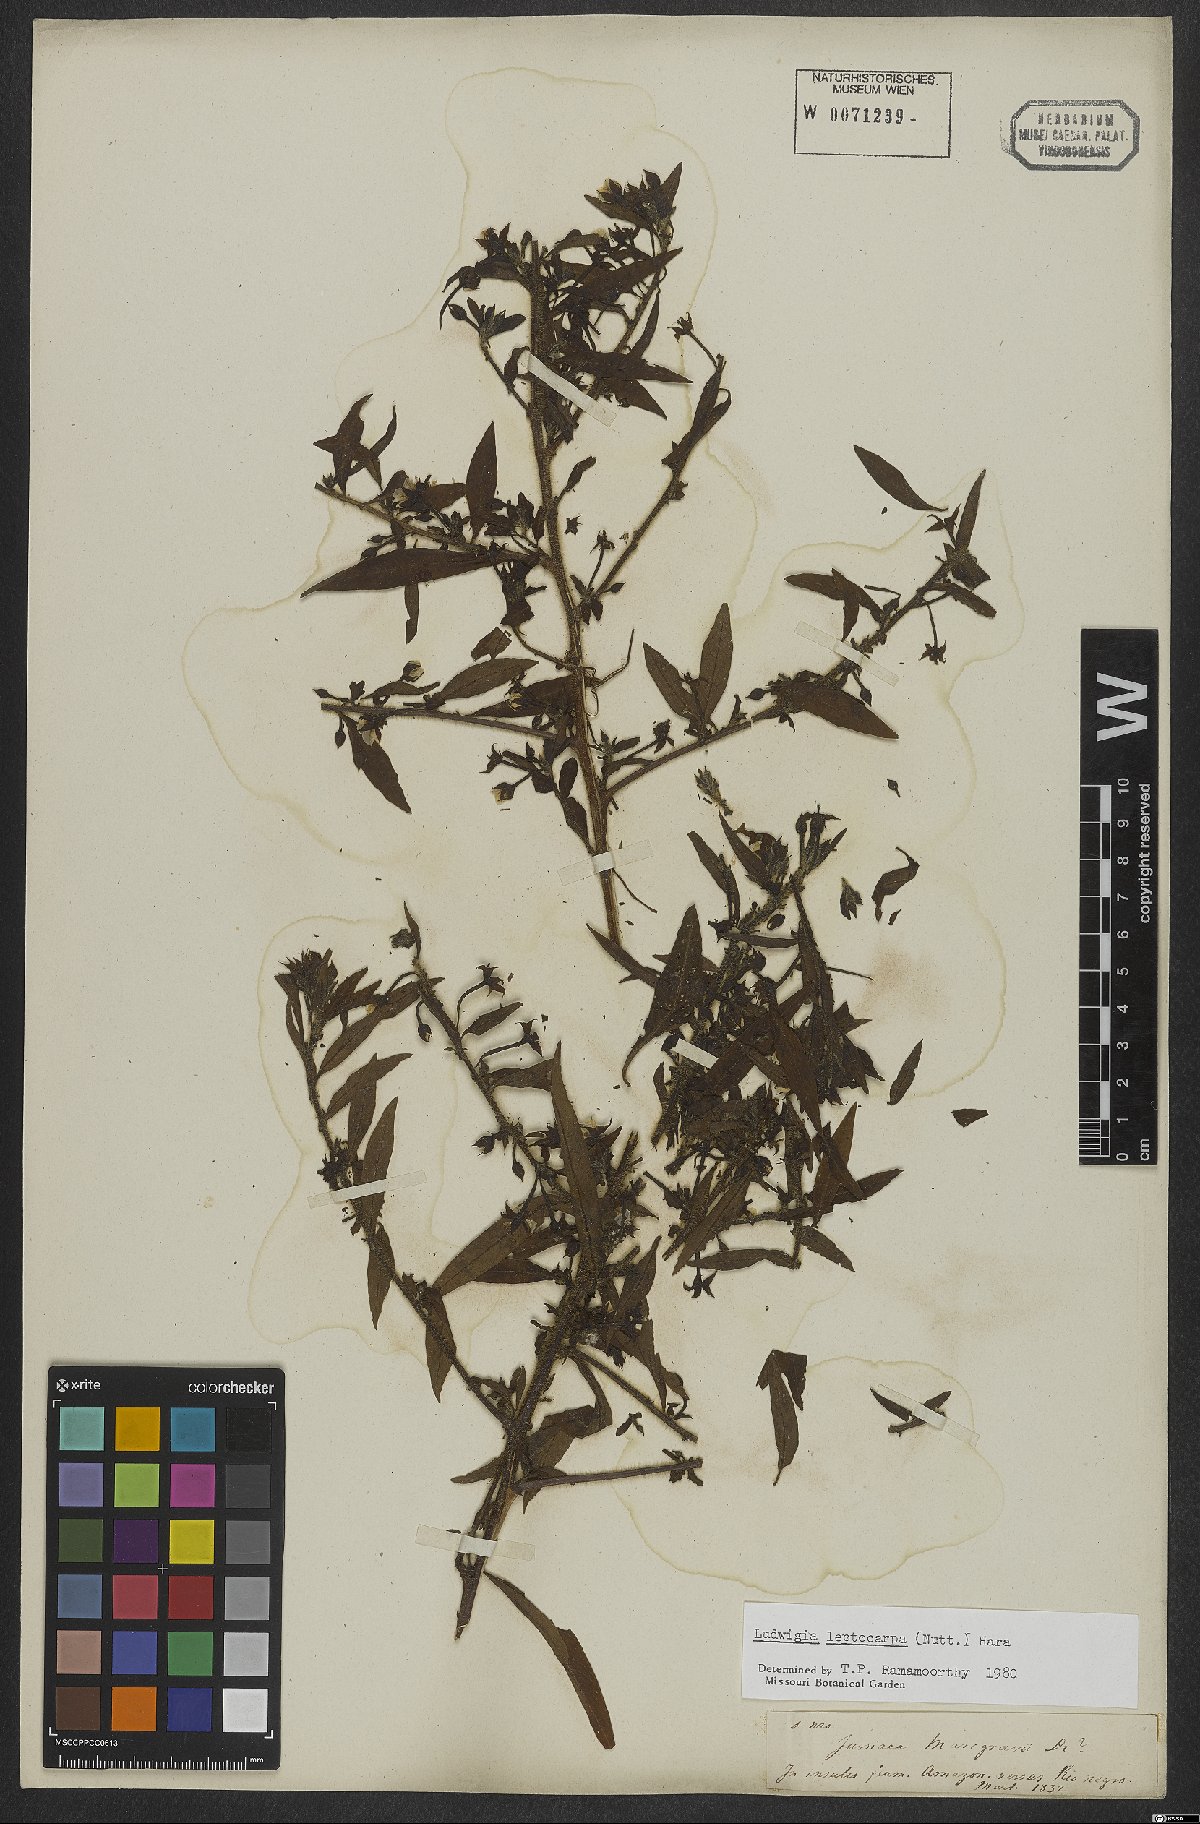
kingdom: Plantae
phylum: Tracheophyta
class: Magnoliopsida
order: Myrtales
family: Onagraceae
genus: Ludwigia
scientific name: Ludwigia leptocarpa
